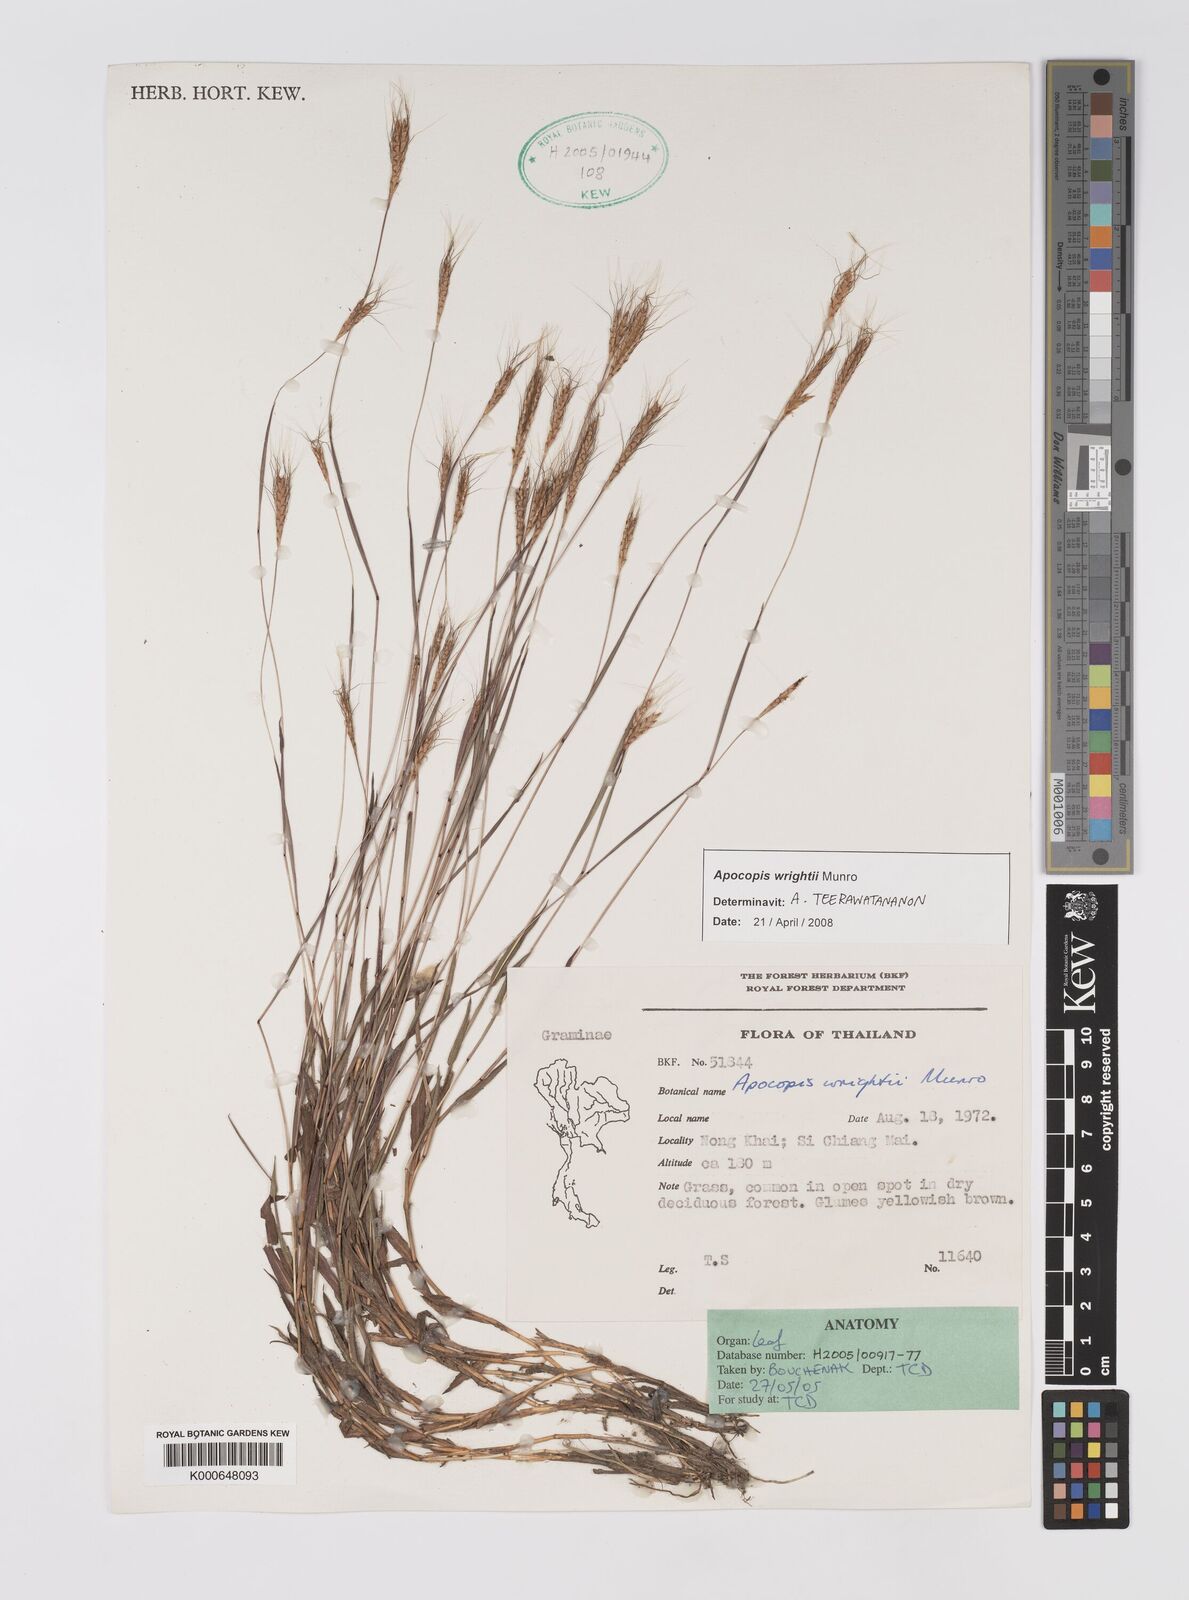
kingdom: Plantae
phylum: Tracheophyta
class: Liliopsida
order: Poales
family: Poaceae
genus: Apocopis
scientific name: Apocopis wrightii
